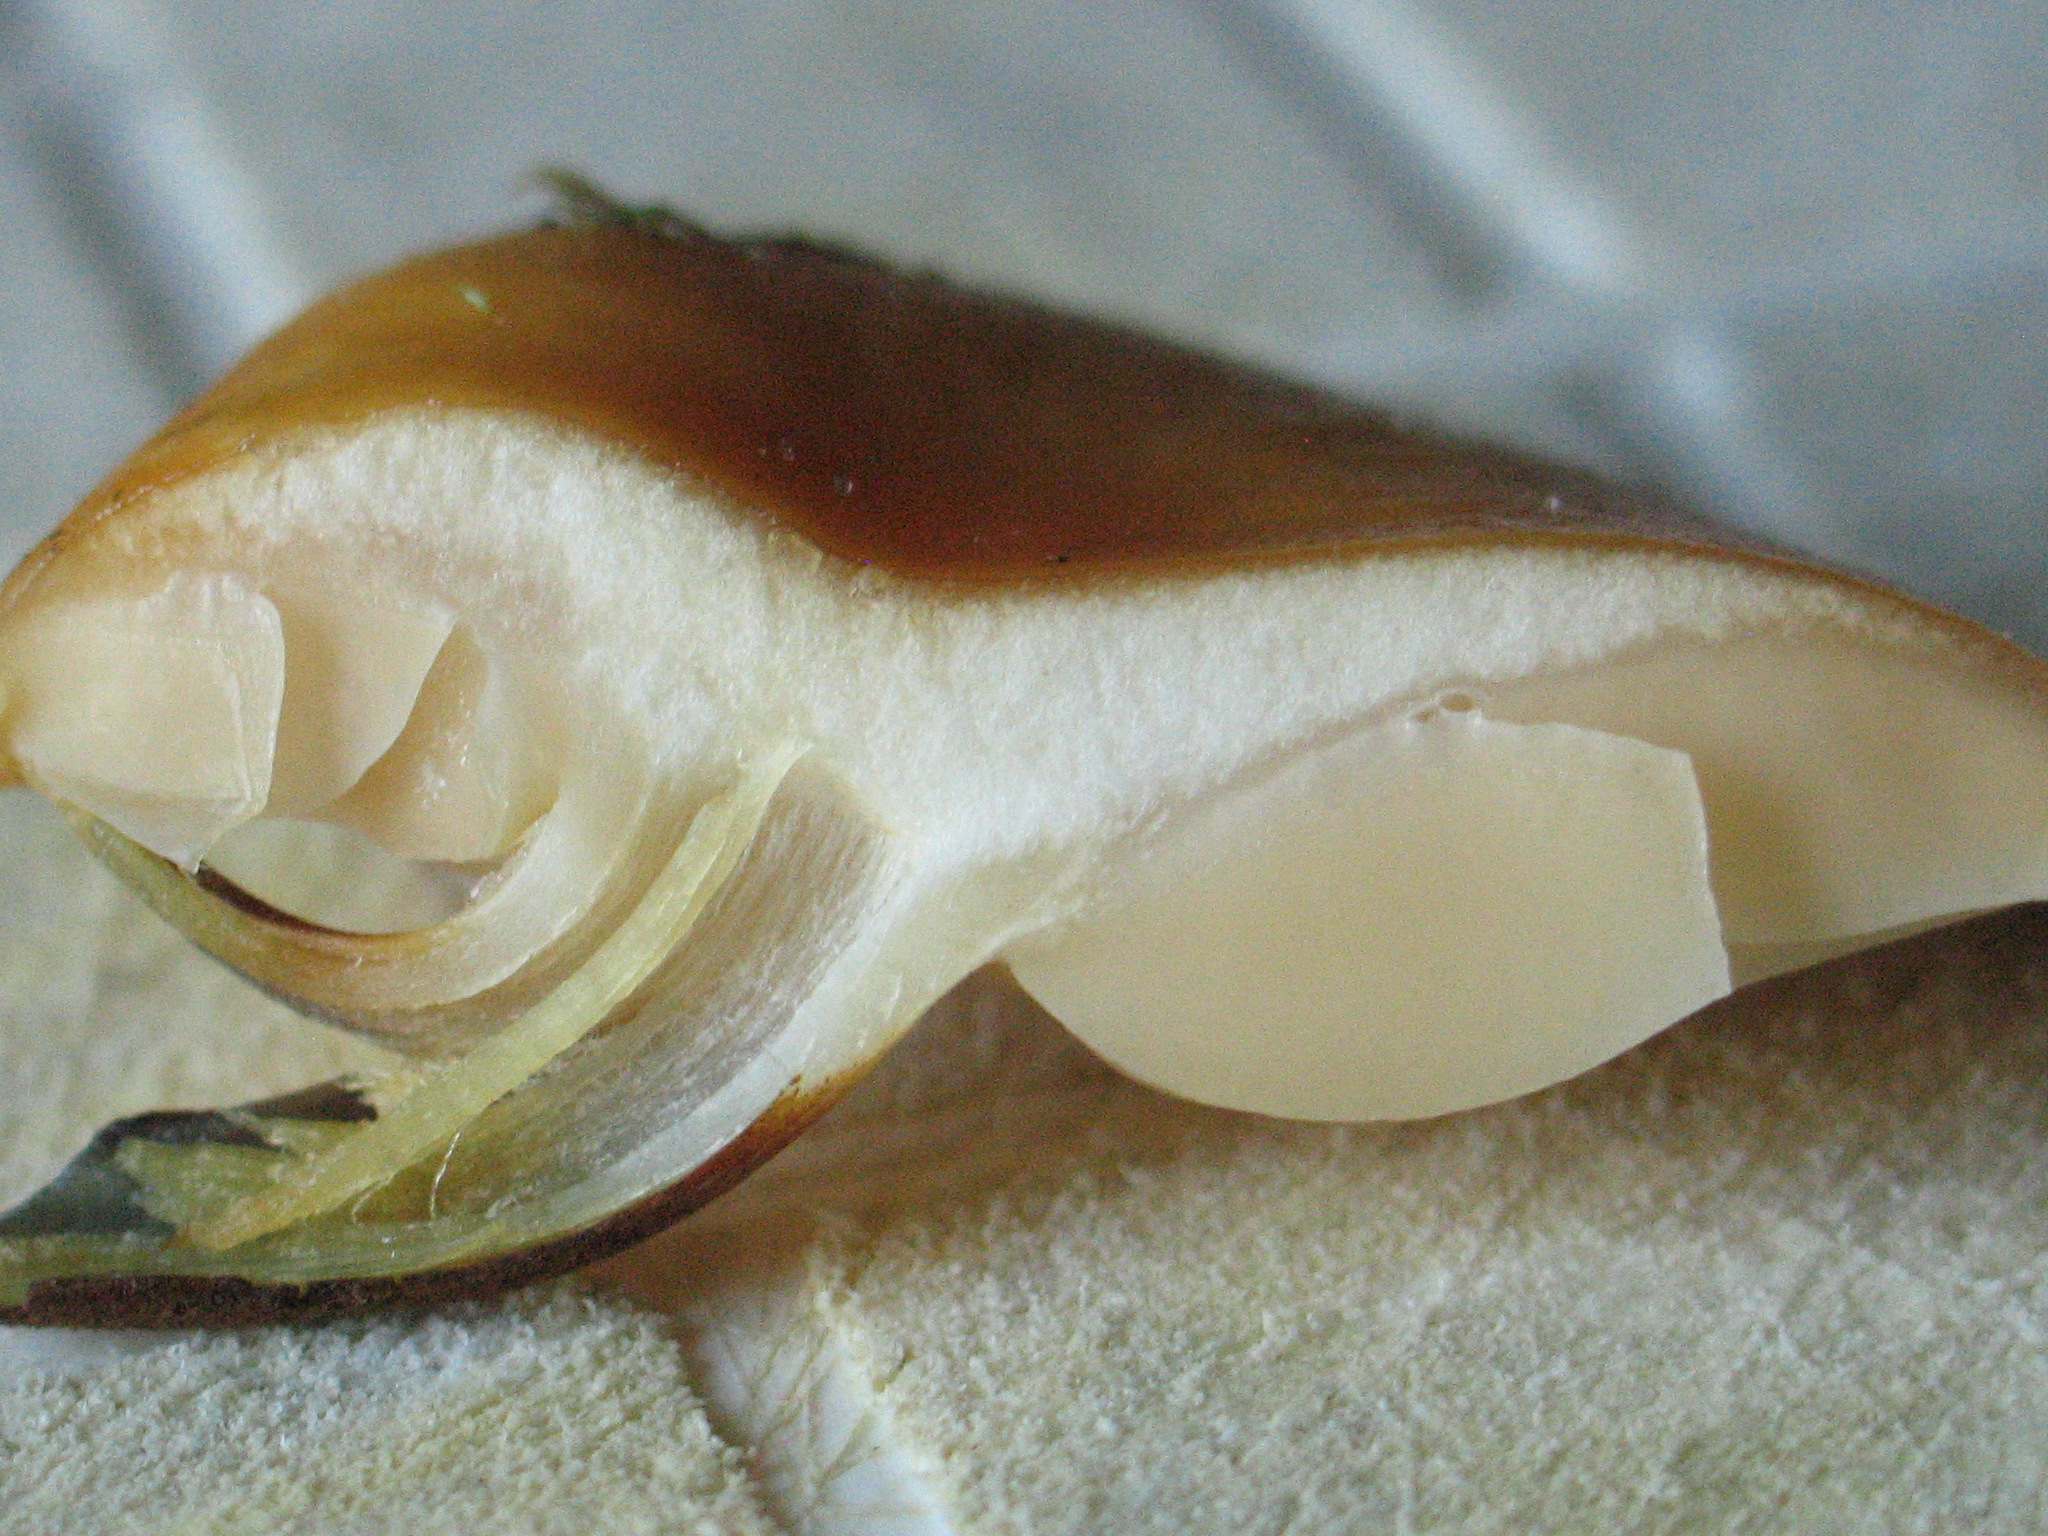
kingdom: Fungi
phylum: Basidiomycota
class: Agaricomycetes
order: Agaricales
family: Physalacriaceae
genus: Flammulina
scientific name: Flammulina velutipes
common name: gul fløjlsfod
